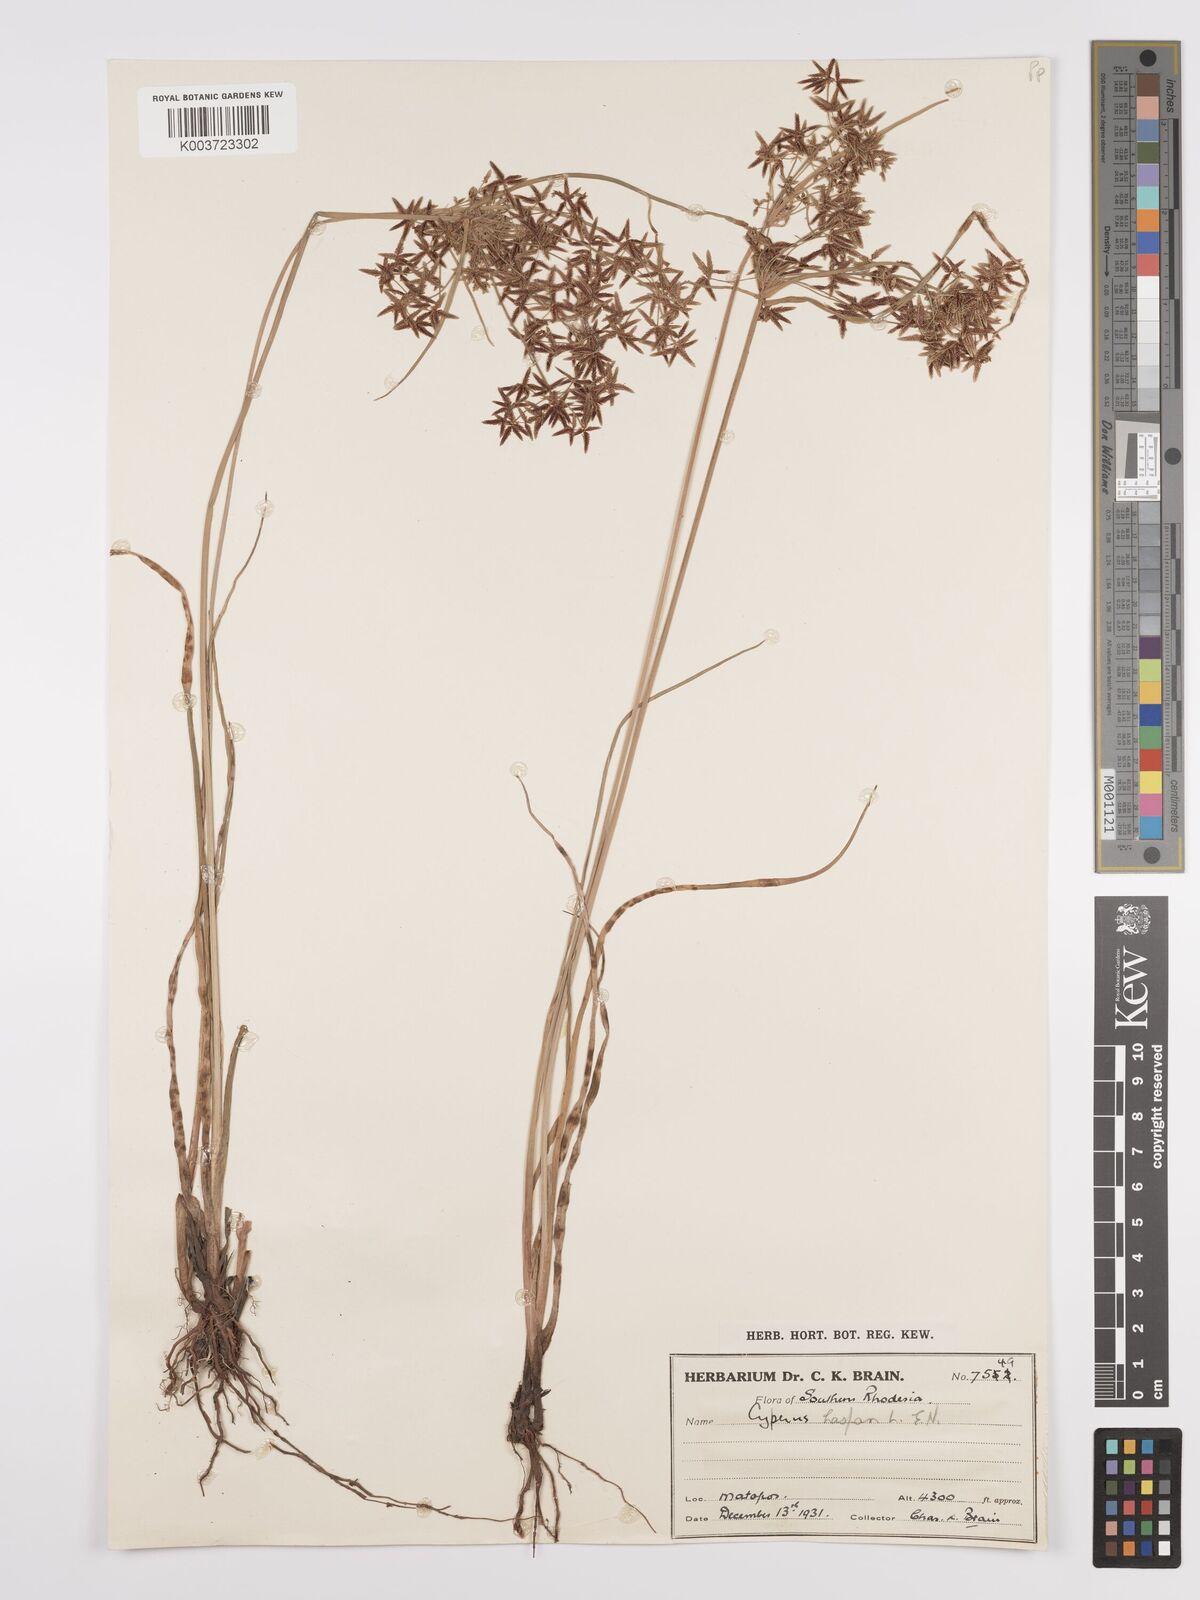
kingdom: Plantae
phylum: Tracheophyta
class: Liliopsida
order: Poales
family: Cyperaceae
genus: Cyperus
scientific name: Cyperus denudatus
